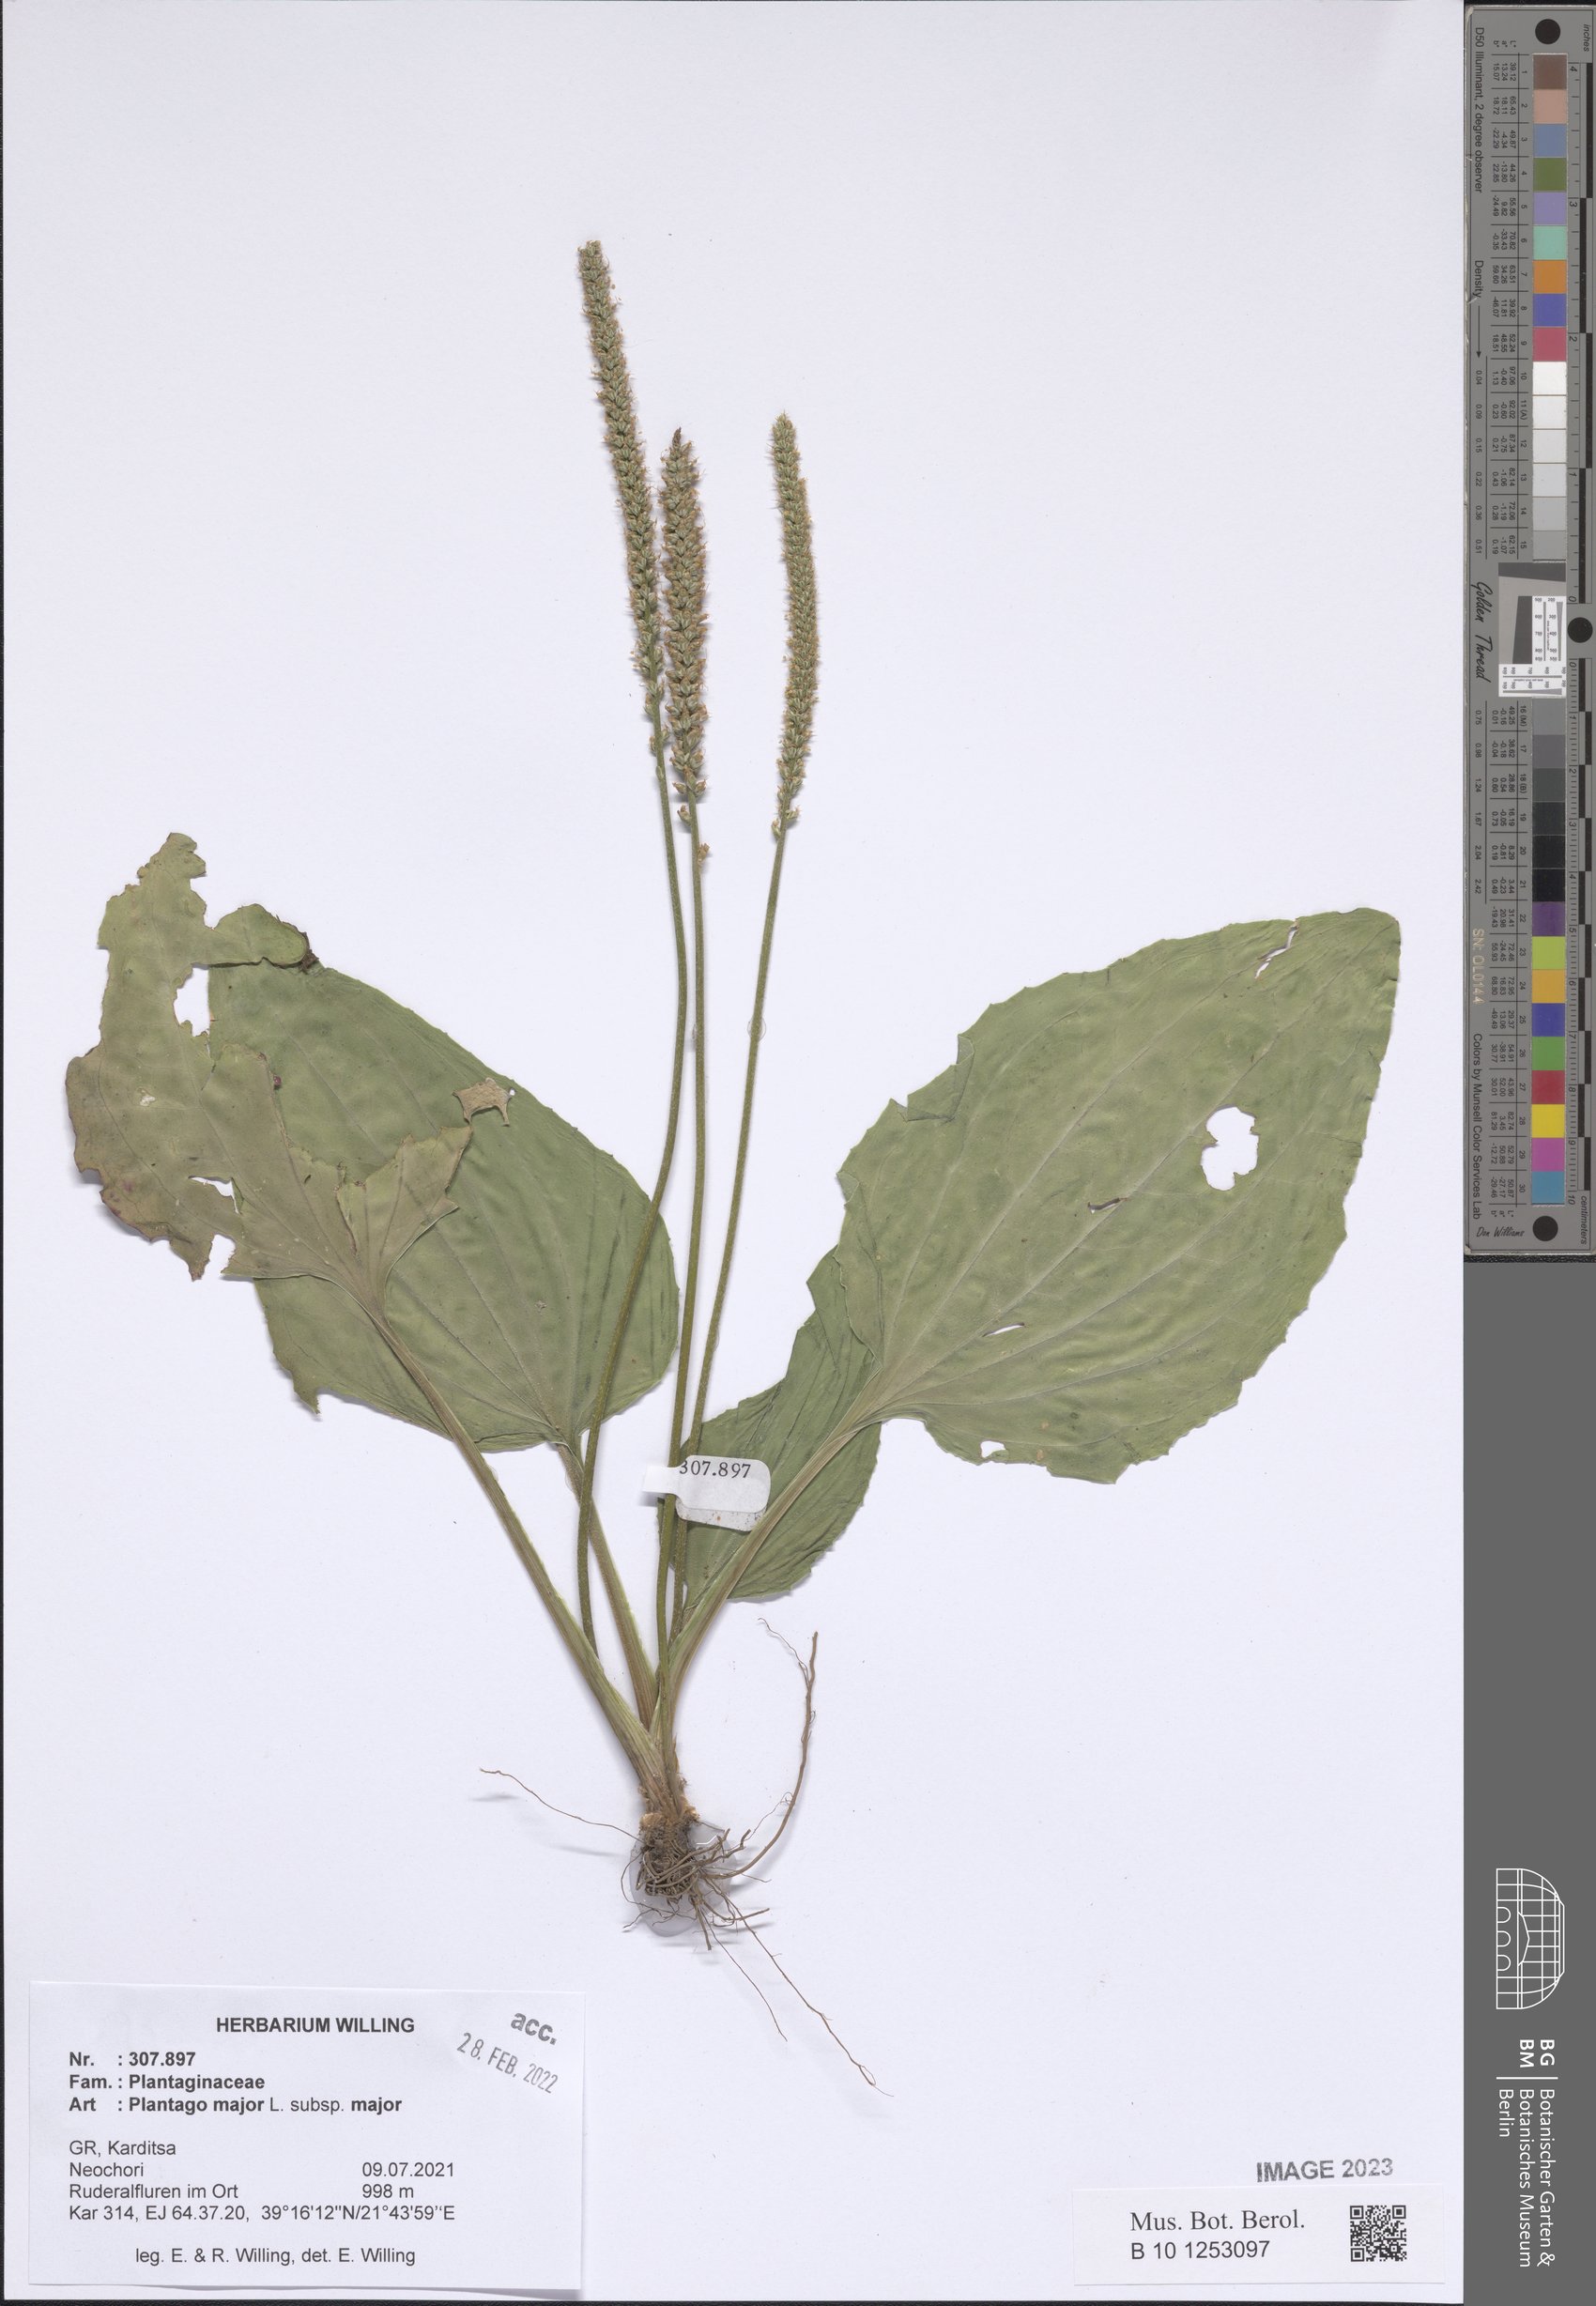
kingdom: Plantae
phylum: Tracheophyta
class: Magnoliopsida
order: Lamiales
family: Plantaginaceae
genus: Plantago
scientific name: Plantago major
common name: Common plantain
